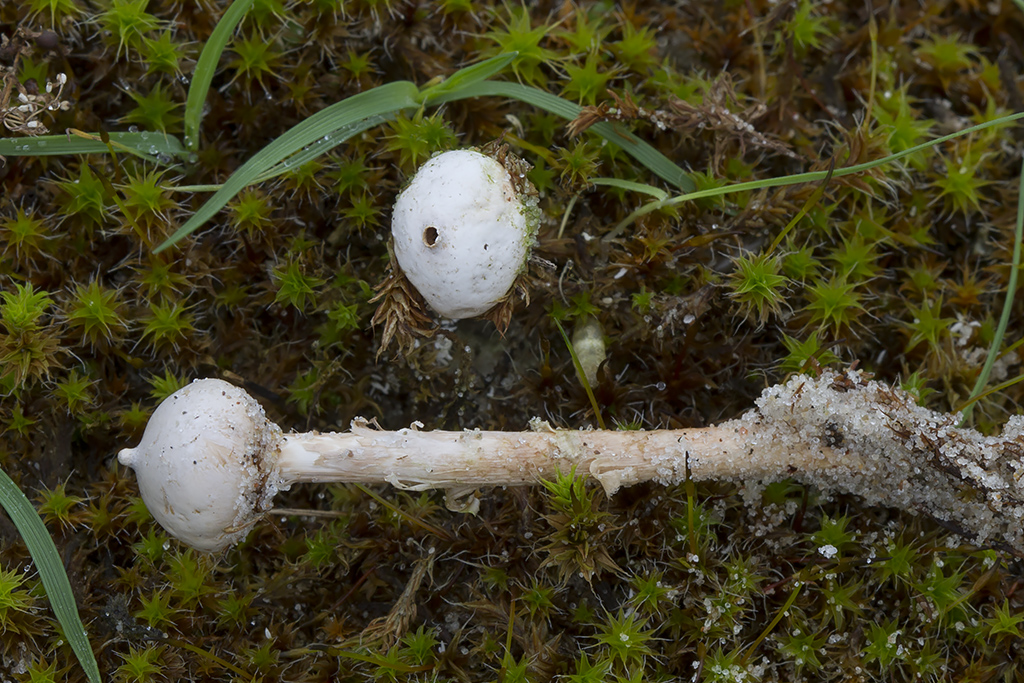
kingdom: Fungi
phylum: Basidiomycota
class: Agaricomycetes
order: Agaricales
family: Agaricaceae
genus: Tulostoma
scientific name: Tulostoma kotlabae
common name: gråhvid stilkbovist
